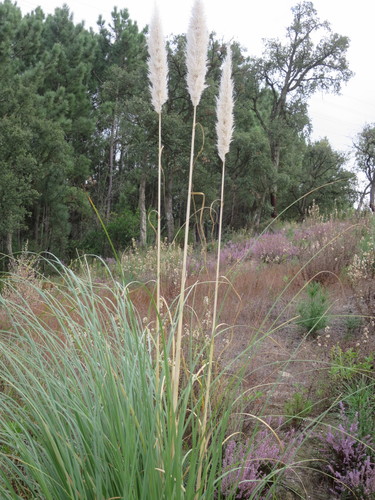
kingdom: Plantae
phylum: Tracheophyta
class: Liliopsida
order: Poales
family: Poaceae
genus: Cortaderia
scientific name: Cortaderia selloana
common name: Uruguayan pampas grass
